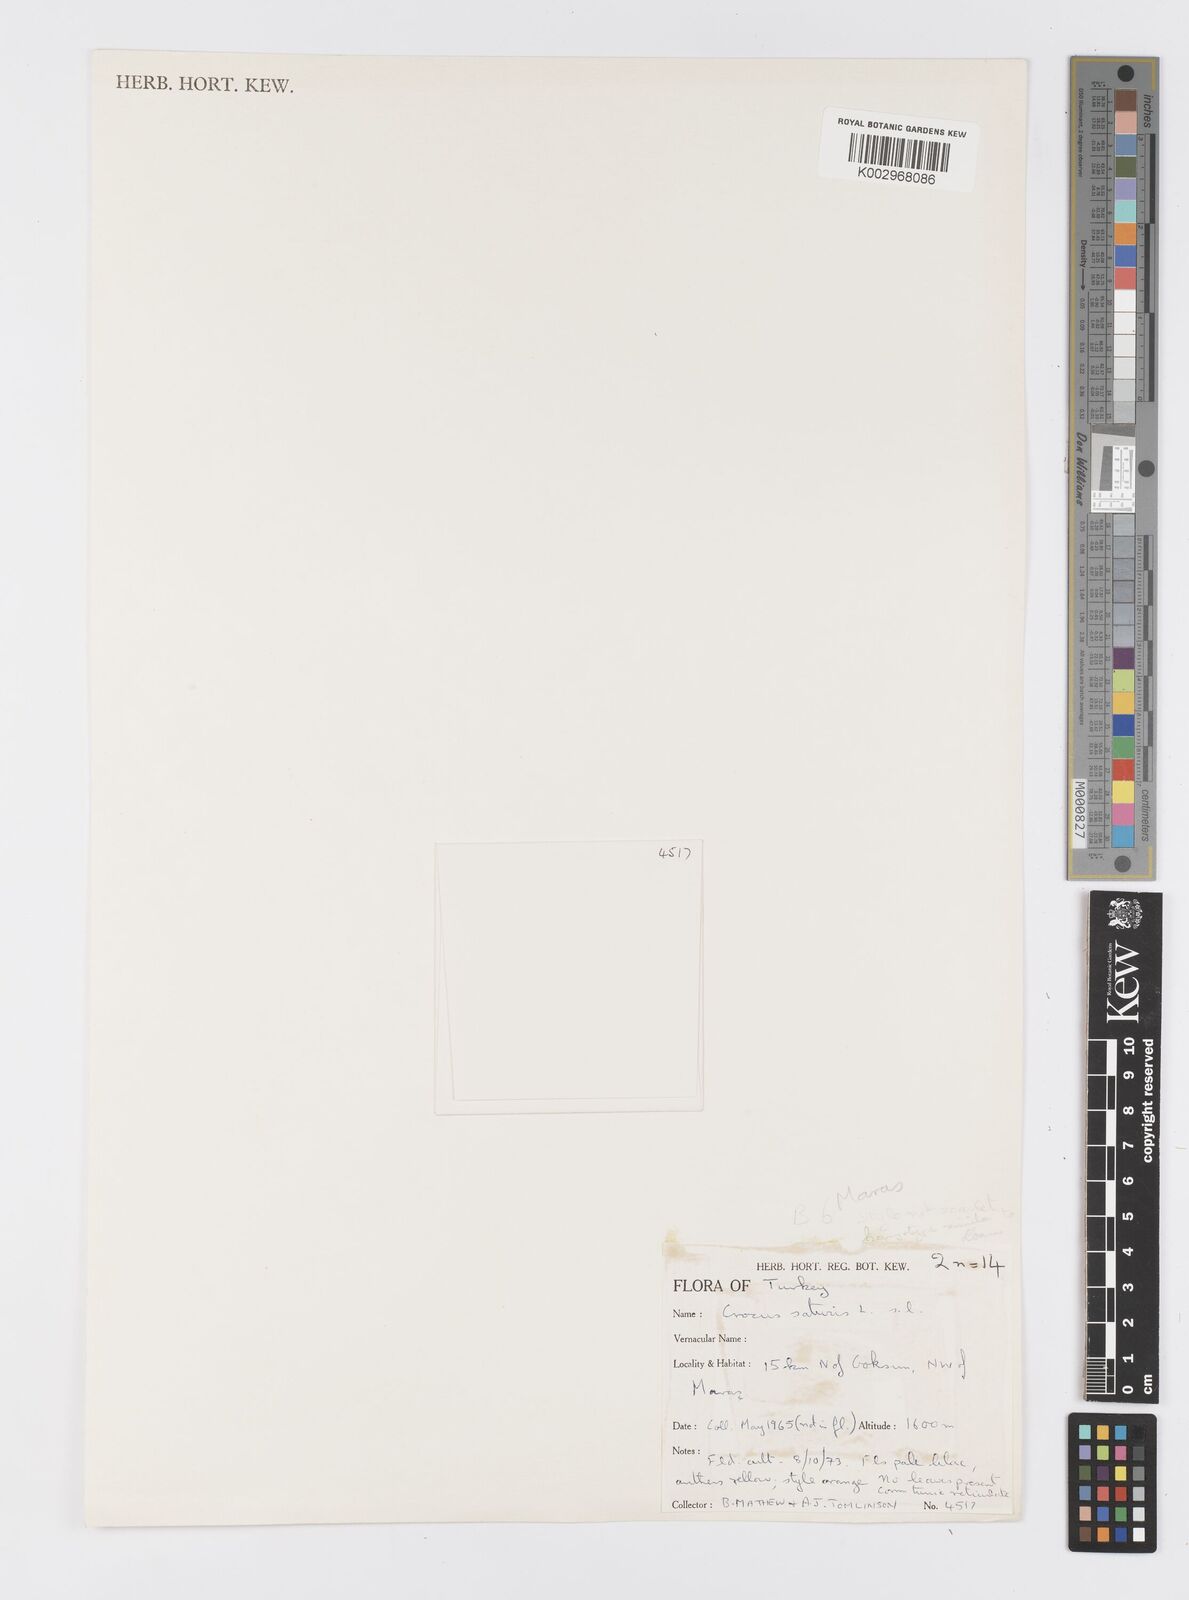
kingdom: Plantae
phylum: Tracheophyta
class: Liliopsida
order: Asparagales
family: Iridaceae
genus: Crocus
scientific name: Crocus
